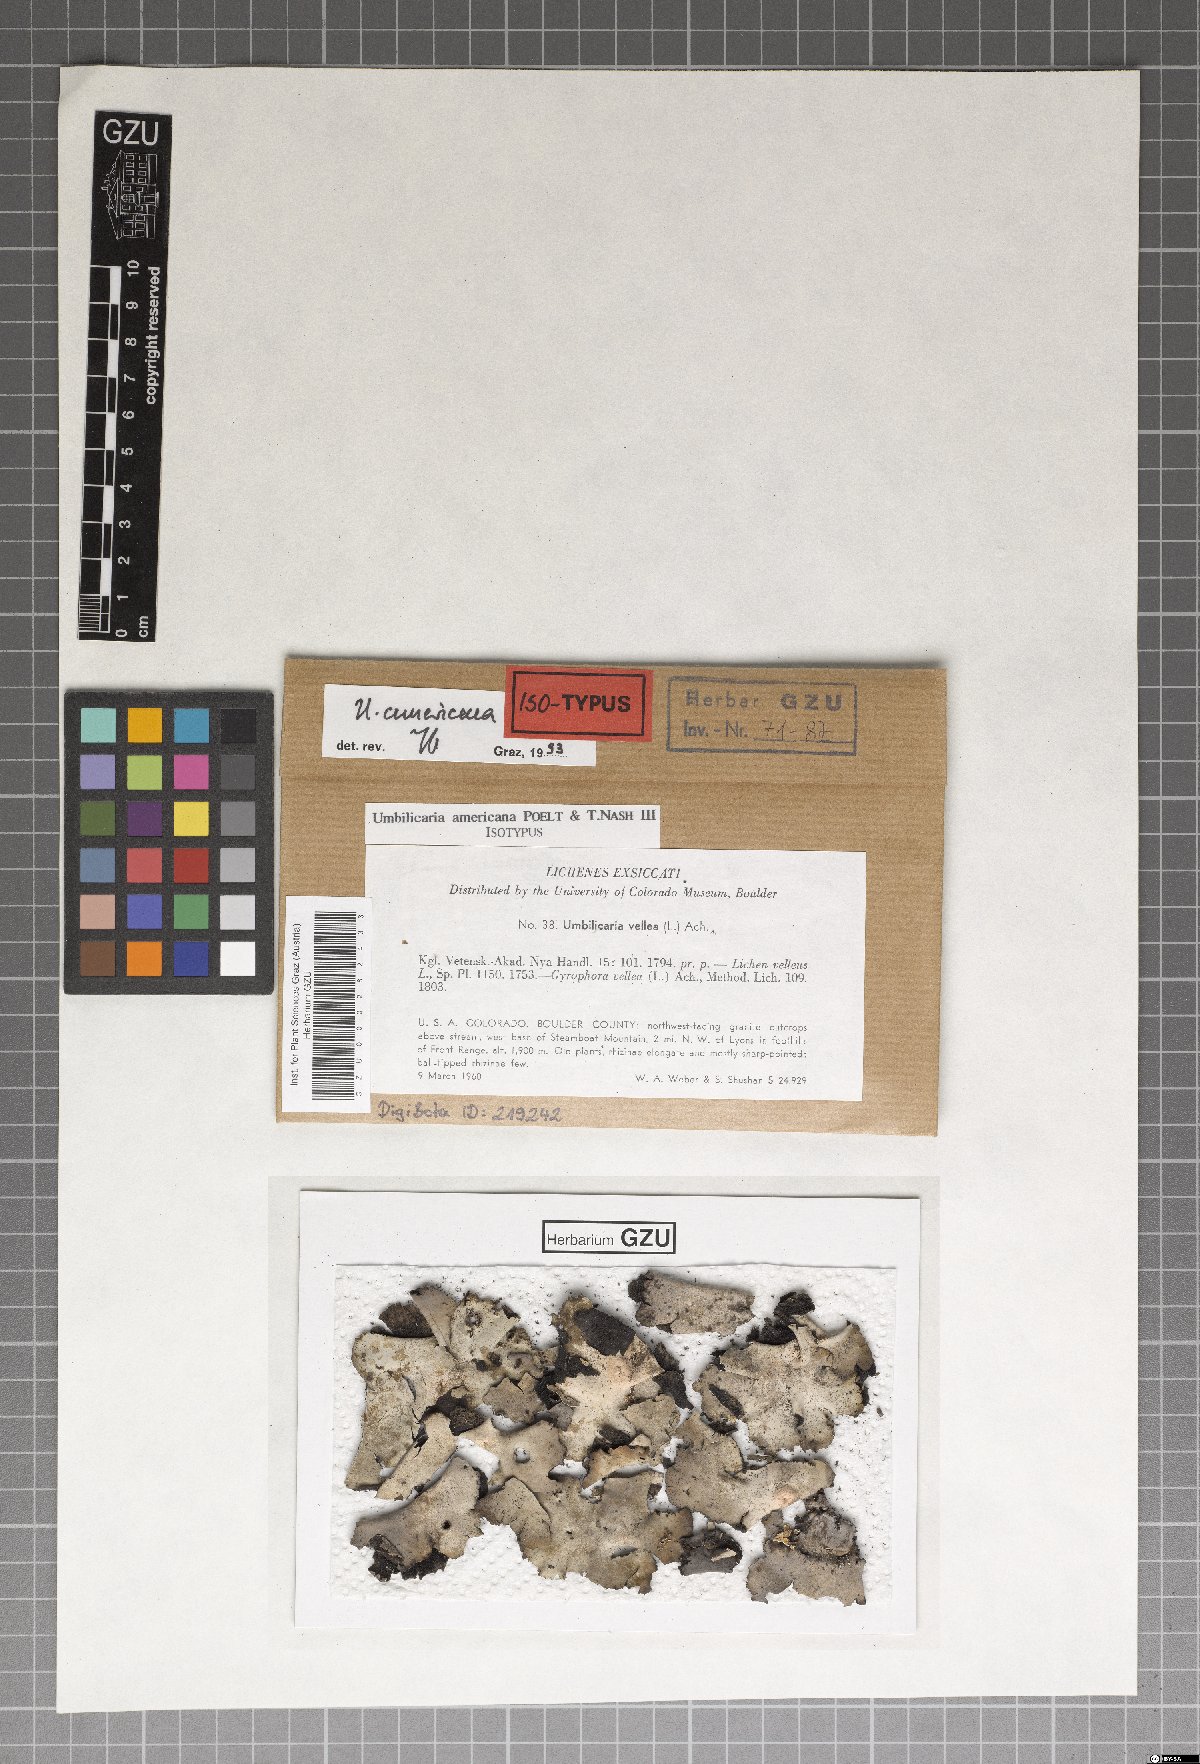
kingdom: Fungi
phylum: Ascomycota
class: Lecanoromycetes
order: Umbilicariales
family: Umbilicariaceae
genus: Umbilicaria
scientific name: Umbilicaria americana
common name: Frosted rock tripe
